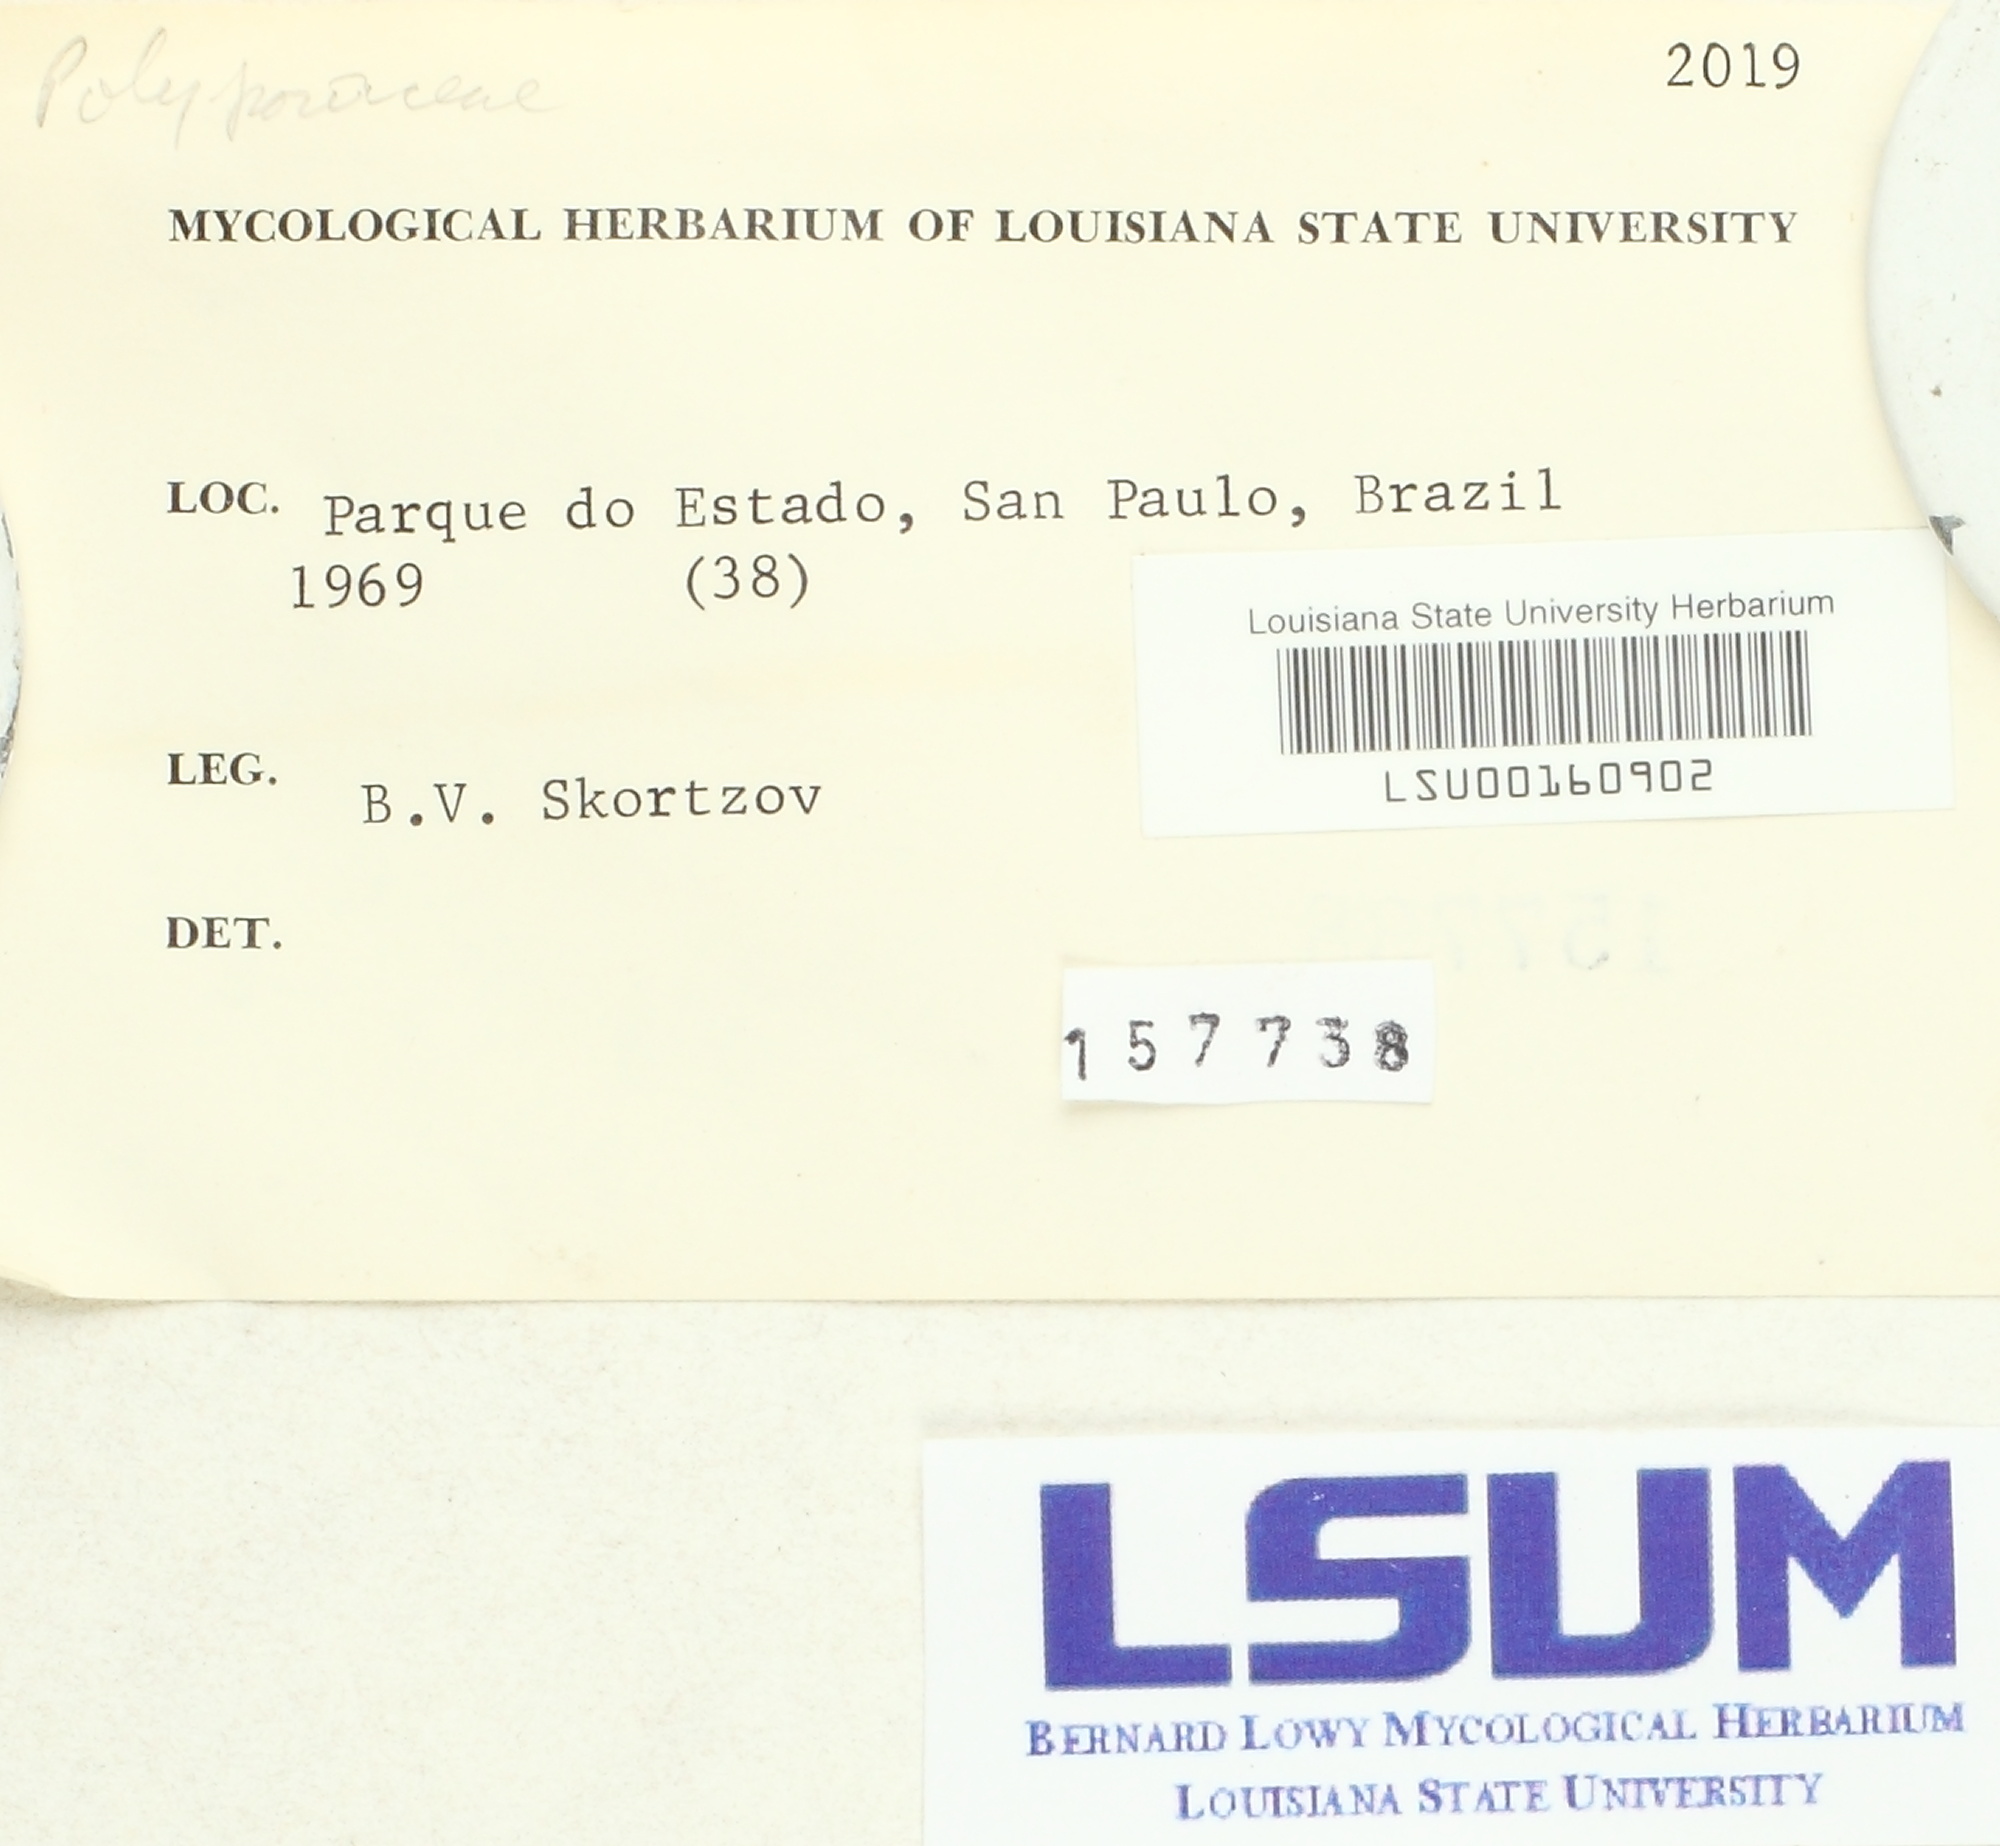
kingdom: Fungi
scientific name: Fungi
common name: Fungi
